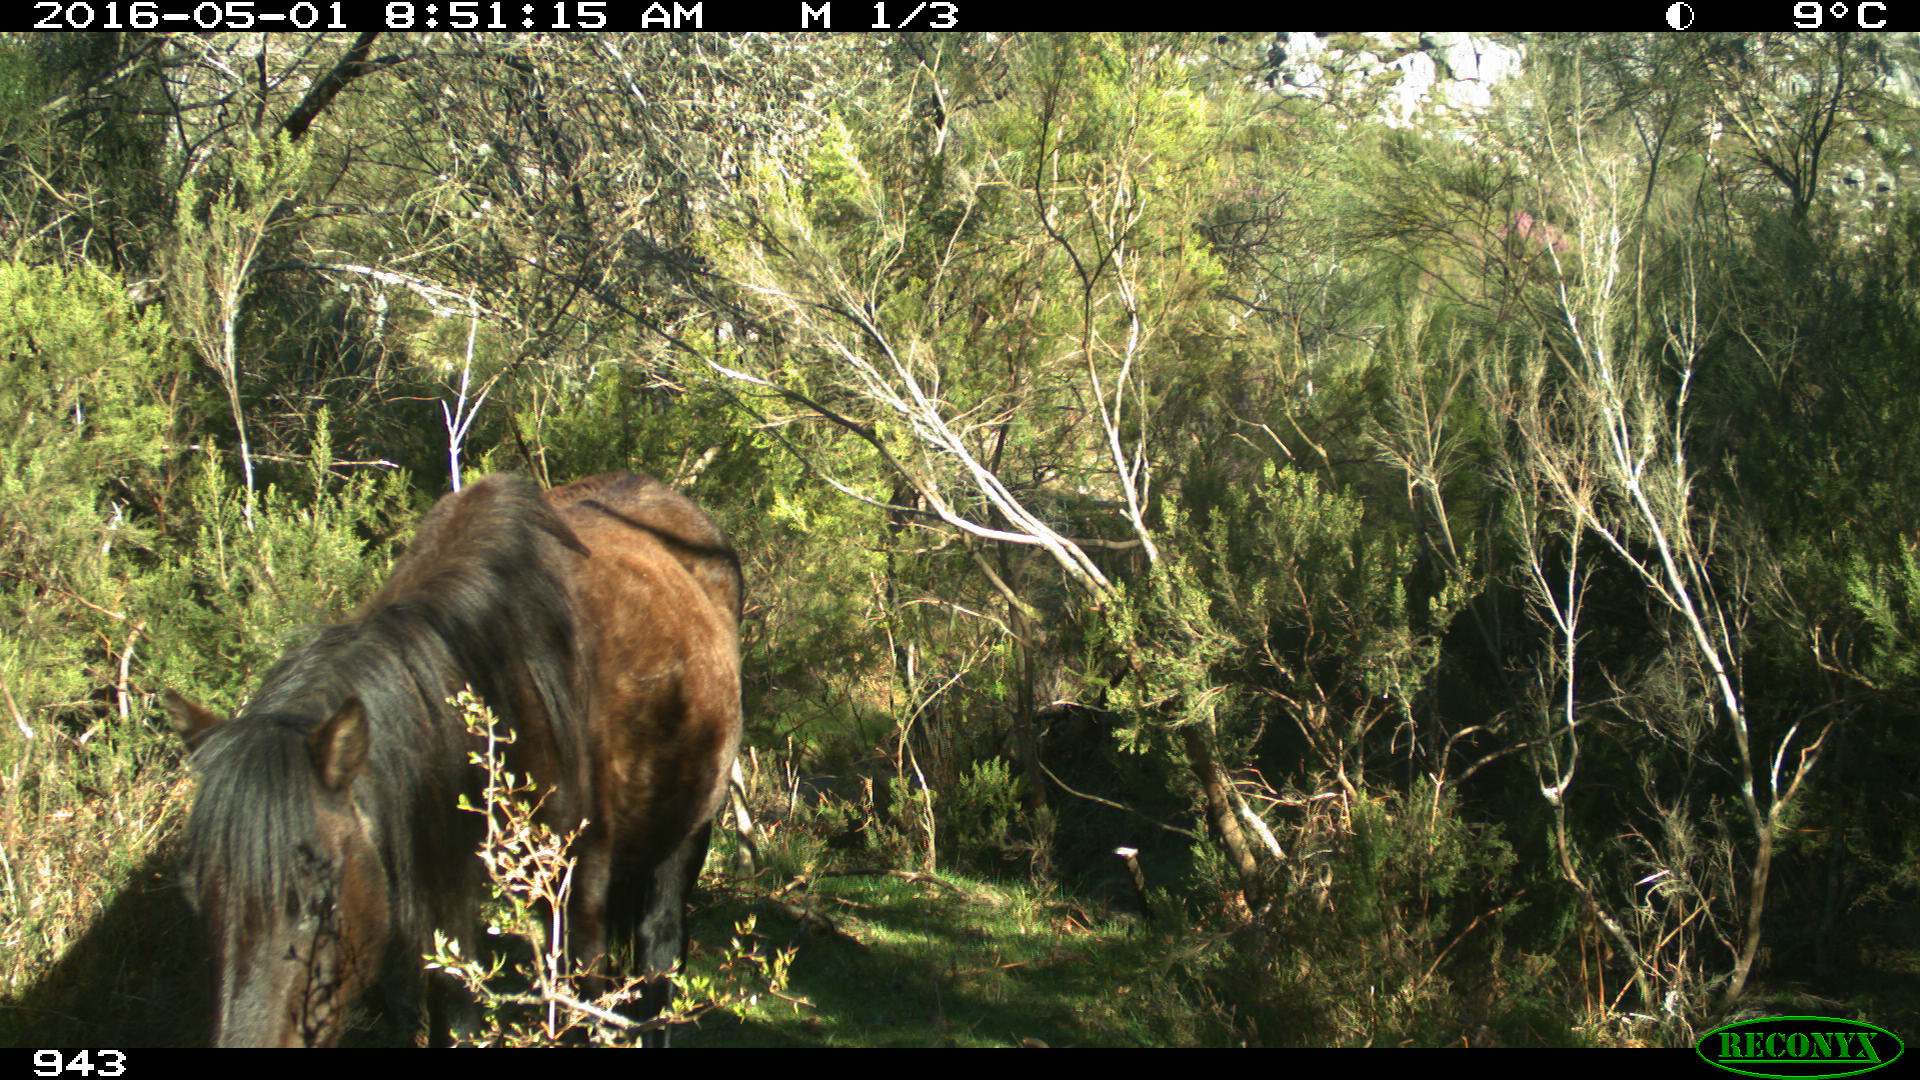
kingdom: Animalia
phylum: Chordata
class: Mammalia
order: Perissodactyla
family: Equidae
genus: Equus
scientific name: Equus caballus
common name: Horse
